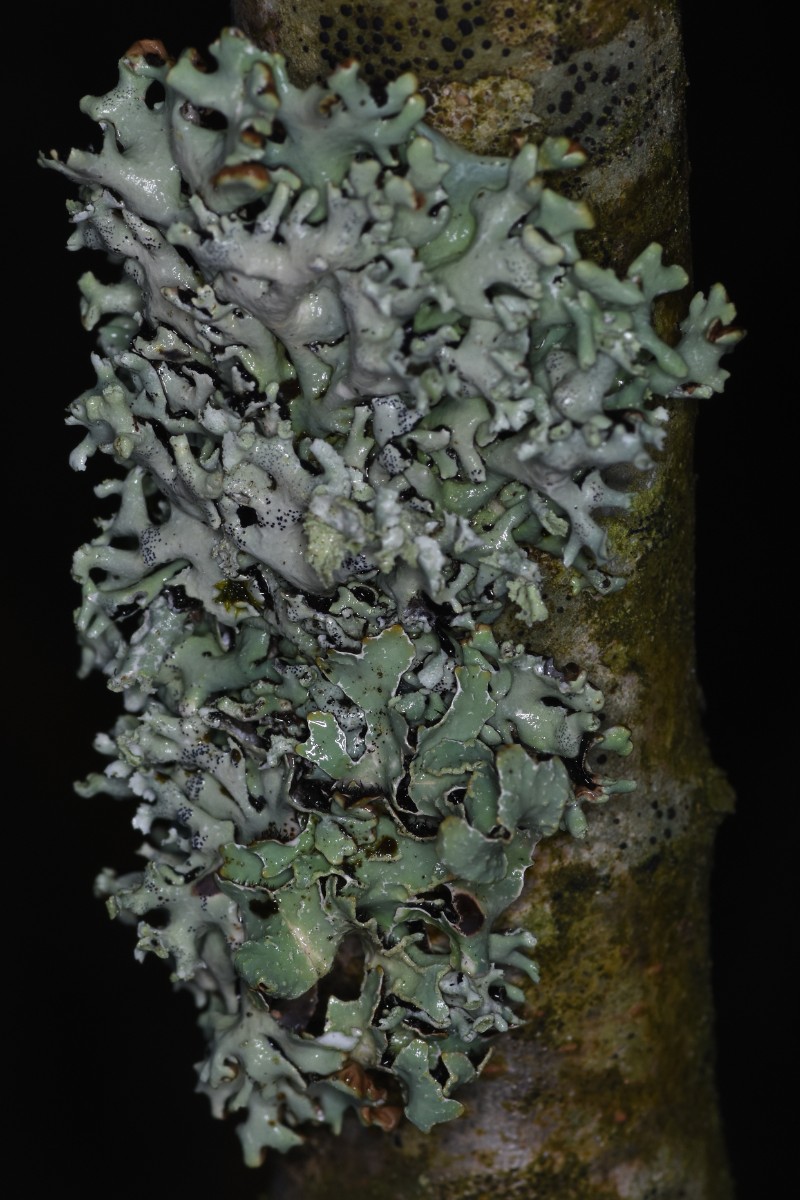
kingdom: Fungi
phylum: Ascomycota
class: Lecanoromycetes
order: Lecanorales
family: Parmeliaceae
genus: Hypogymnia
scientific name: Hypogymnia physodes
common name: almindelig kvistlav
